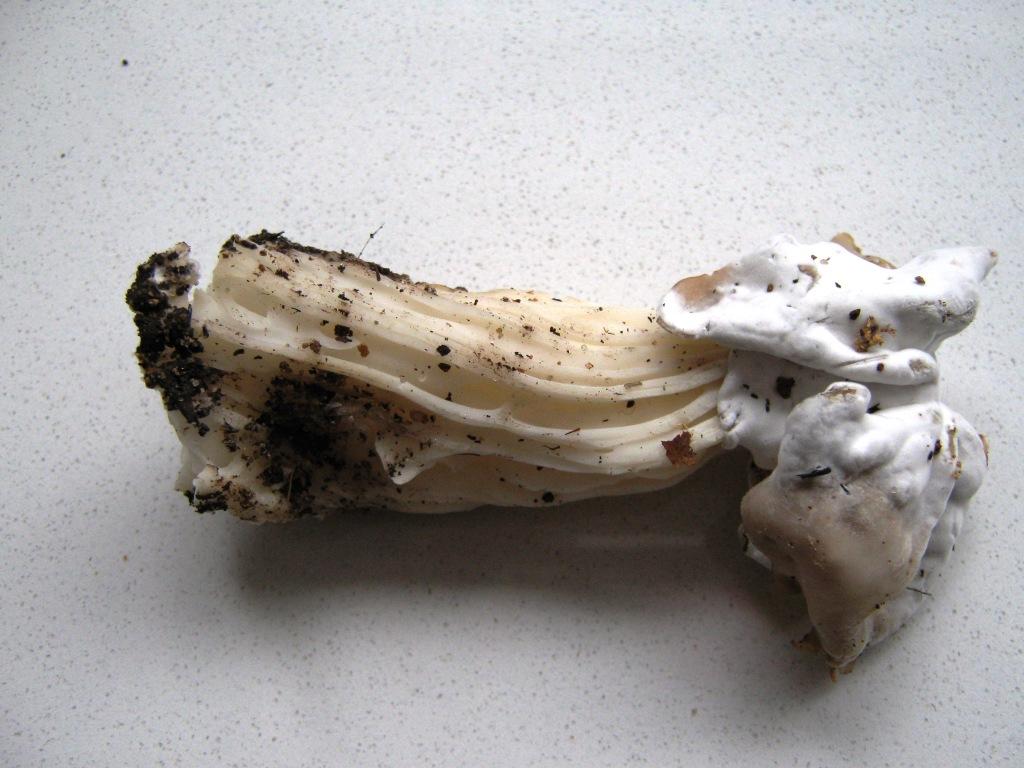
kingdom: Fungi
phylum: Ascomycota
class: Pezizomycetes
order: Pezizales
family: Helvellaceae
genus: Helvella
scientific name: Helvella crispa
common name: kruset foldhat
